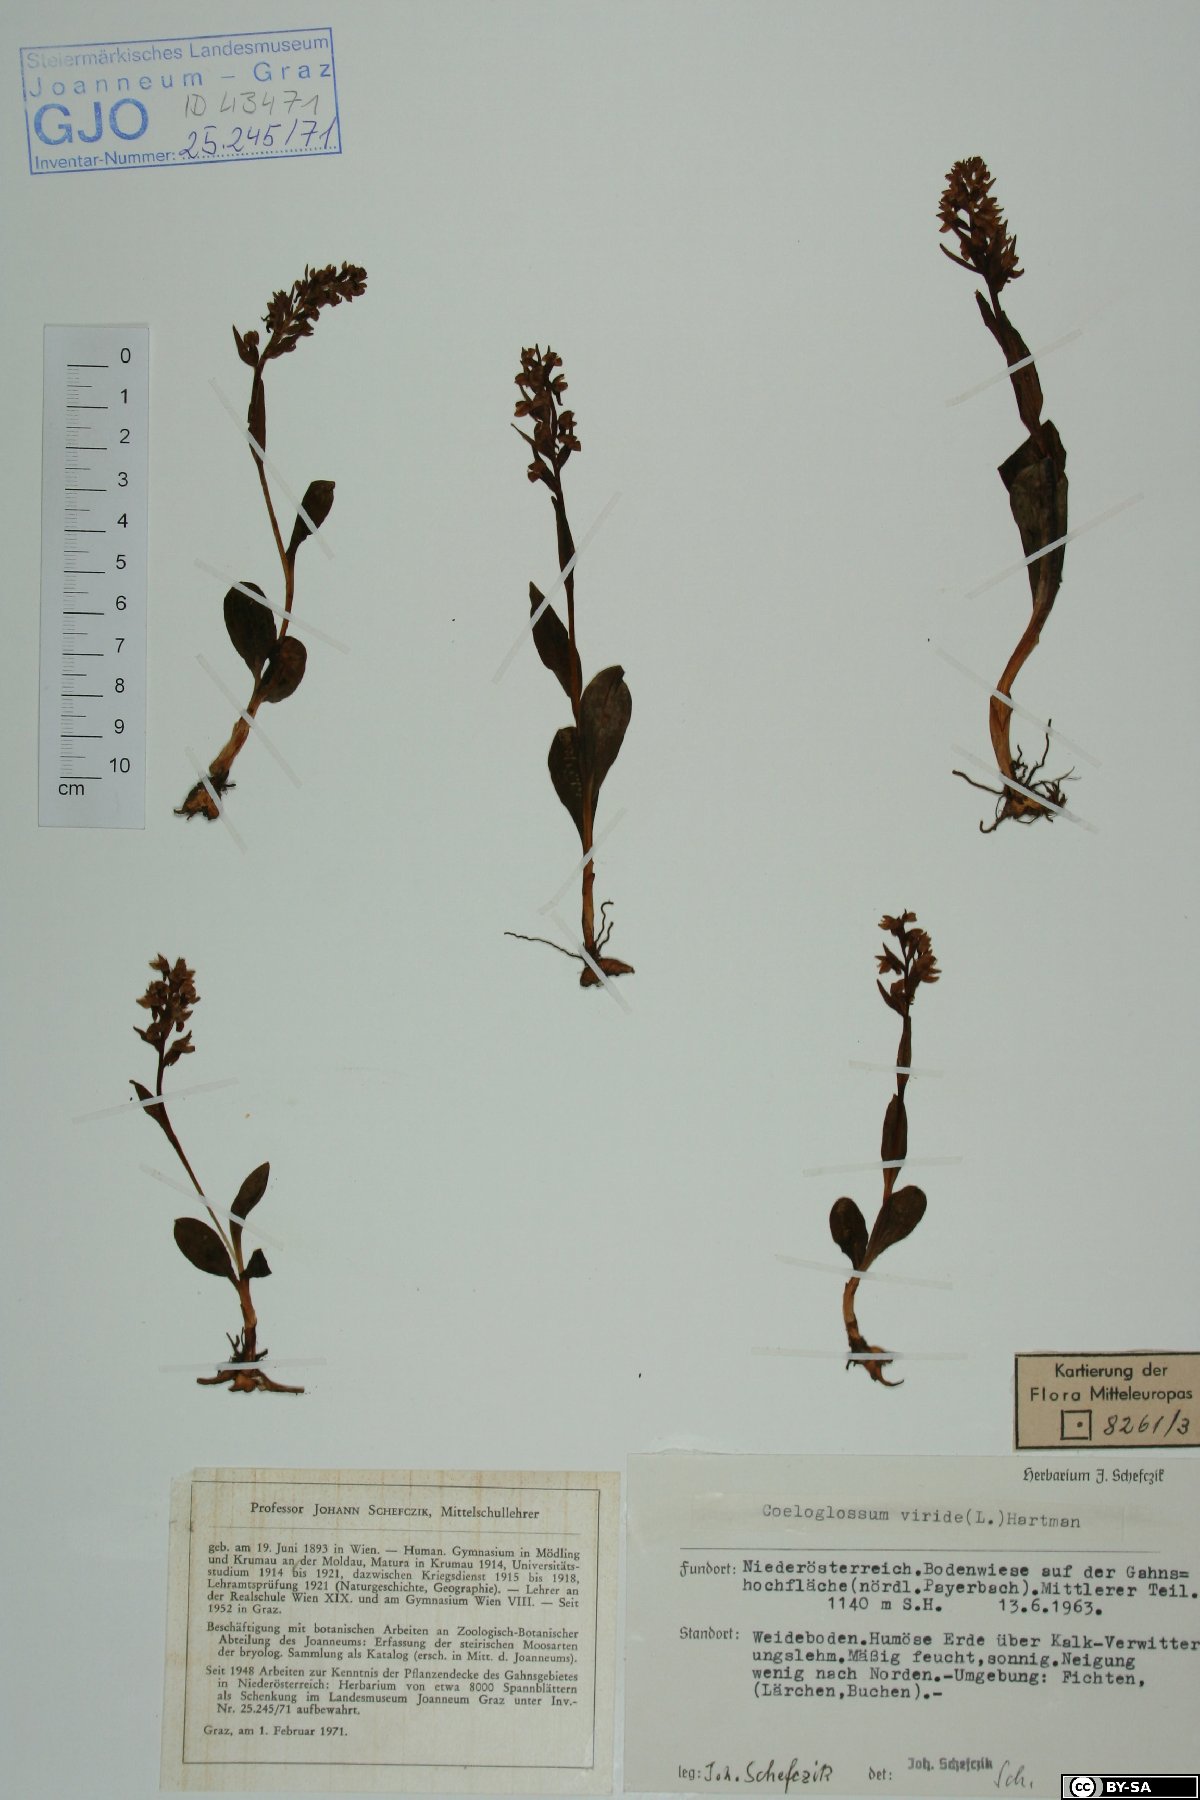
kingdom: Plantae
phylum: Tracheophyta
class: Liliopsida
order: Asparagales
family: Orchidaceae
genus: Dactylorhiza
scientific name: Dactylorhiza viridis
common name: Longbract frog orchid
